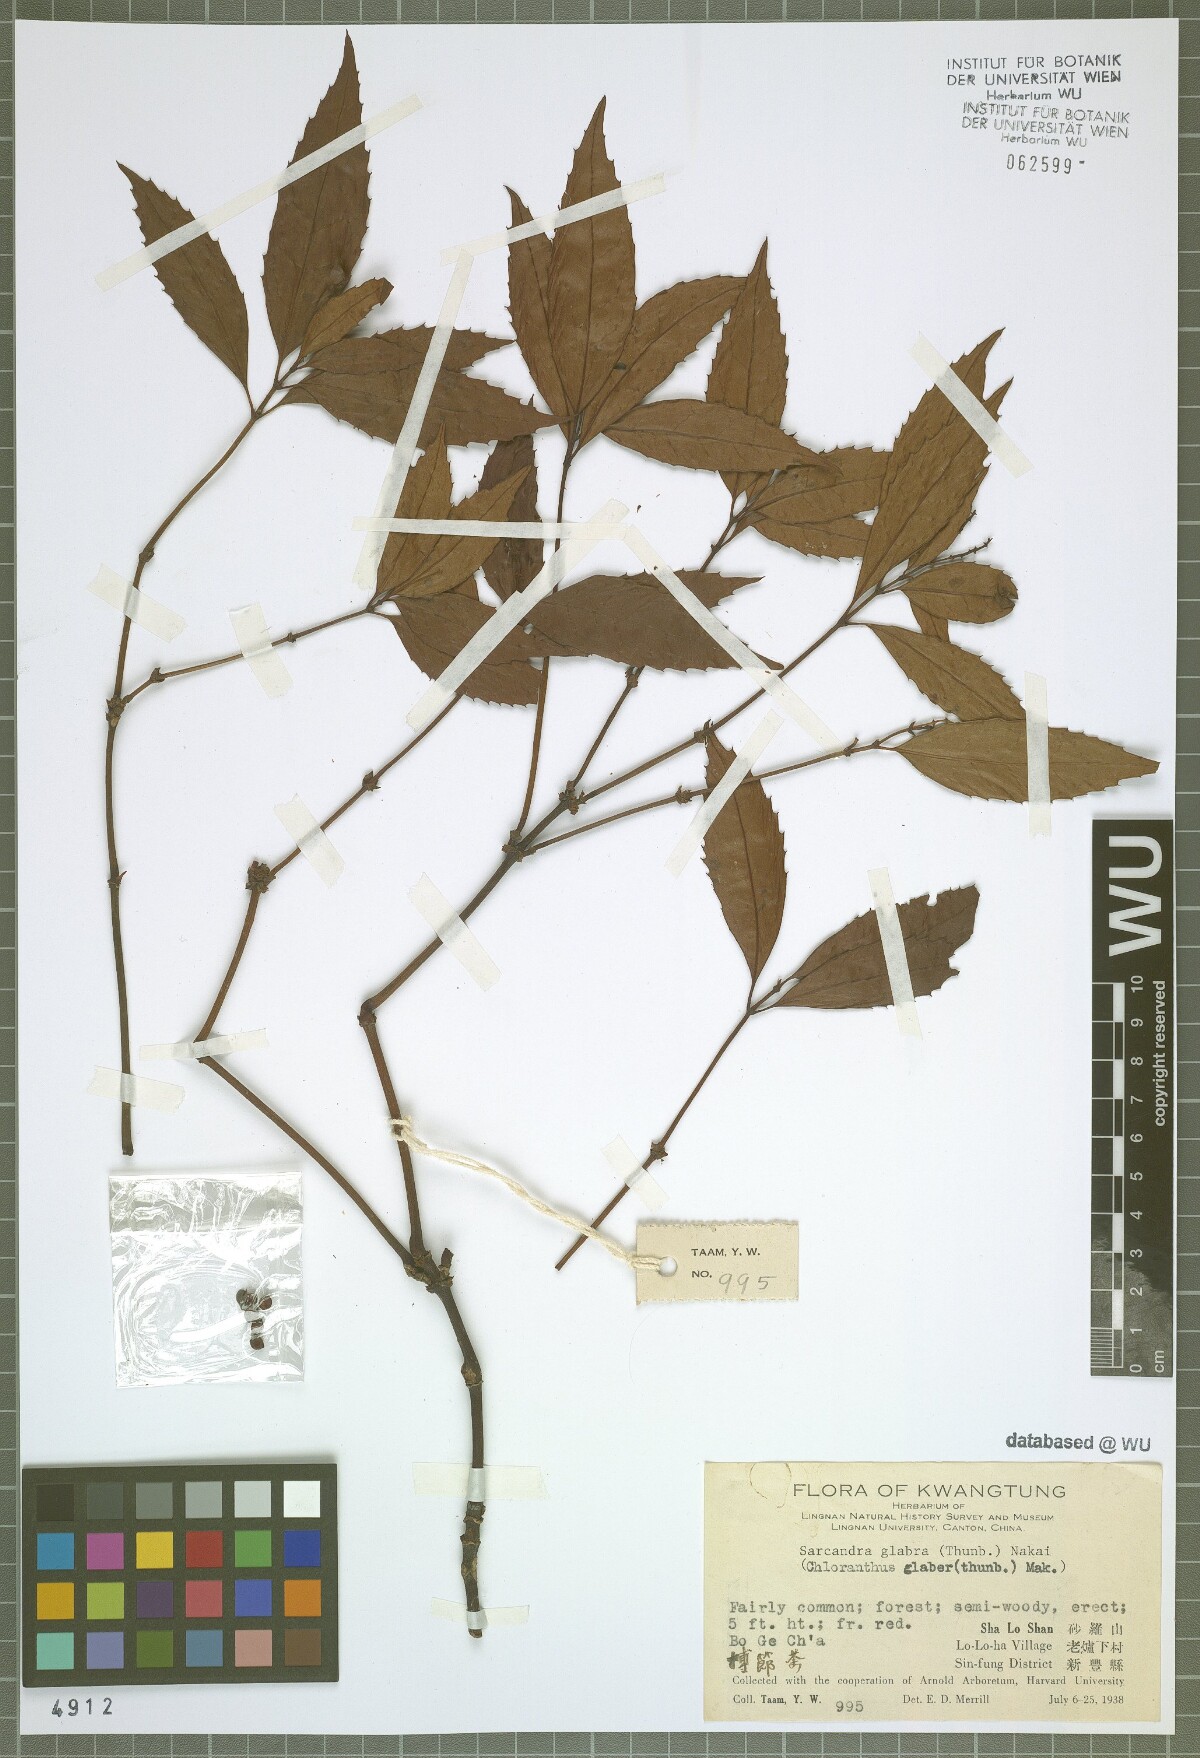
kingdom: Plantae
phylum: Tracheophyta
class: Magnoliopsida
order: Chloranthales
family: Chloranthaceae
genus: Sarcandra
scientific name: Sarcandra glabra
